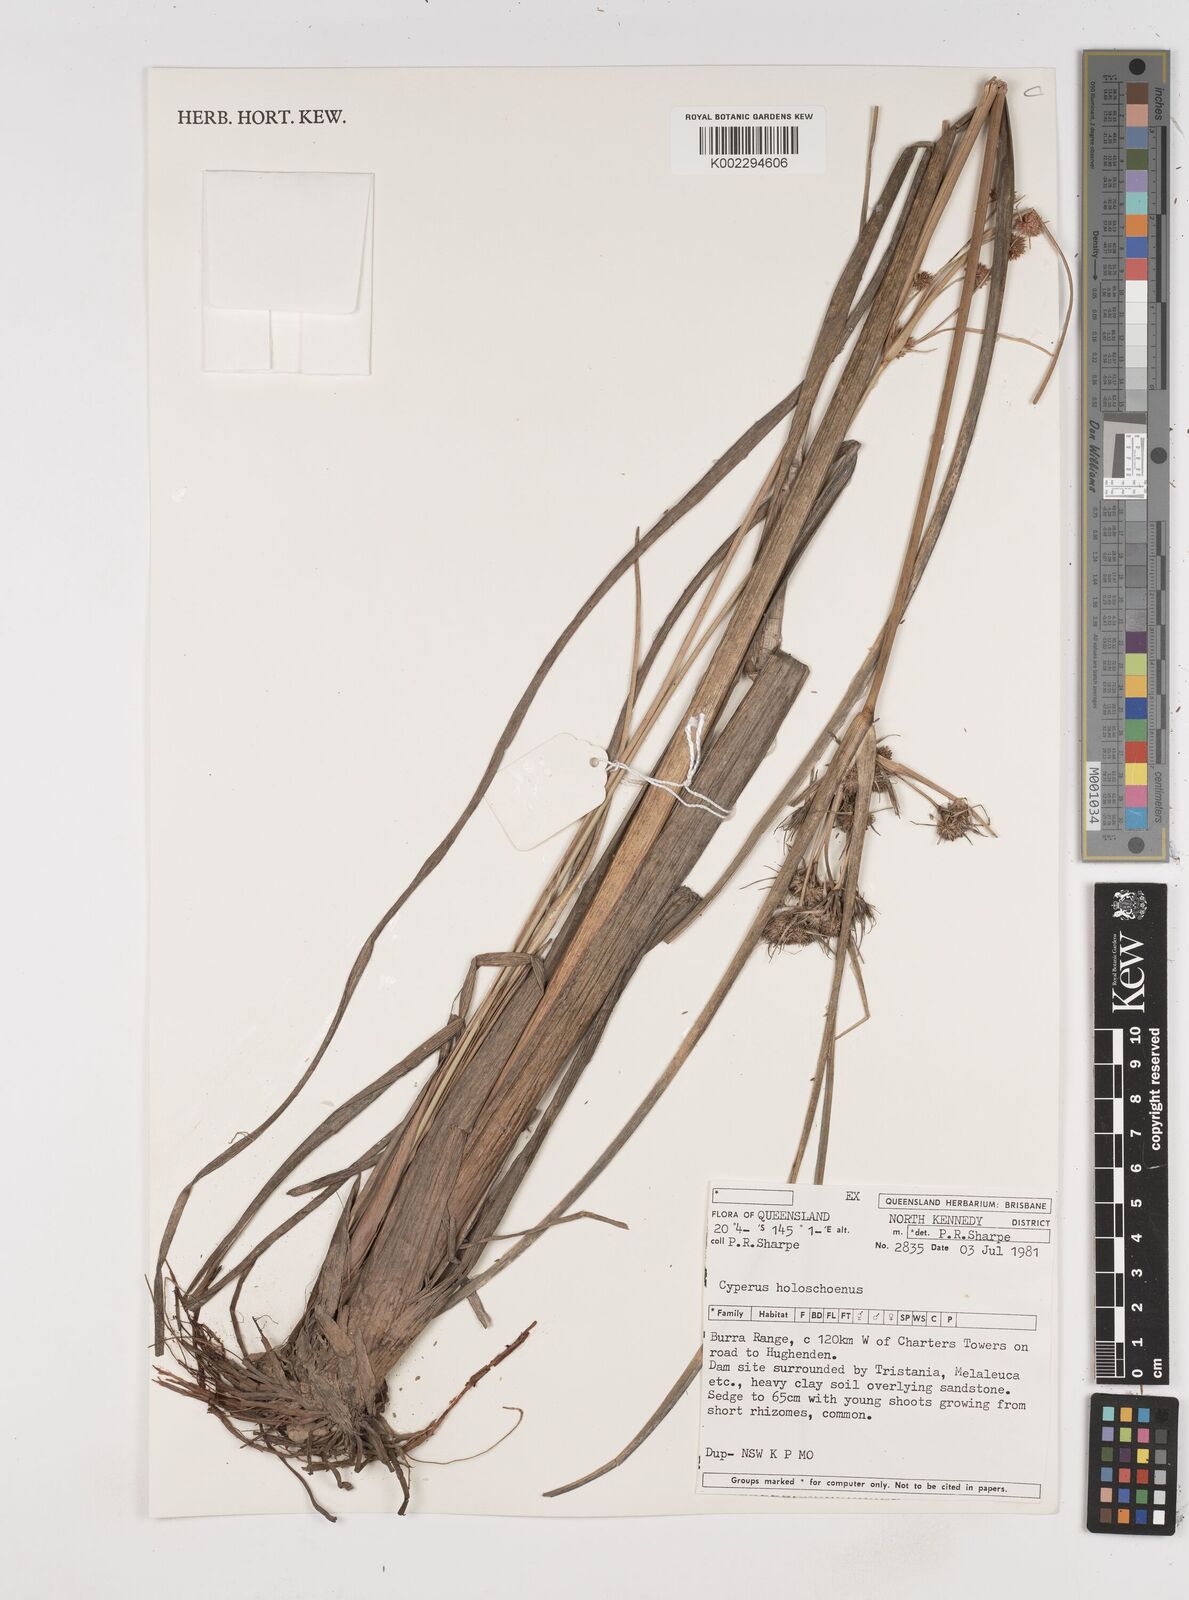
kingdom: Plantae
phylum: Tracheophyta
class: Liliopsida
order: Poales
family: Cyperaceae
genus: Cyperus
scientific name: Cyperus holoschoenus
